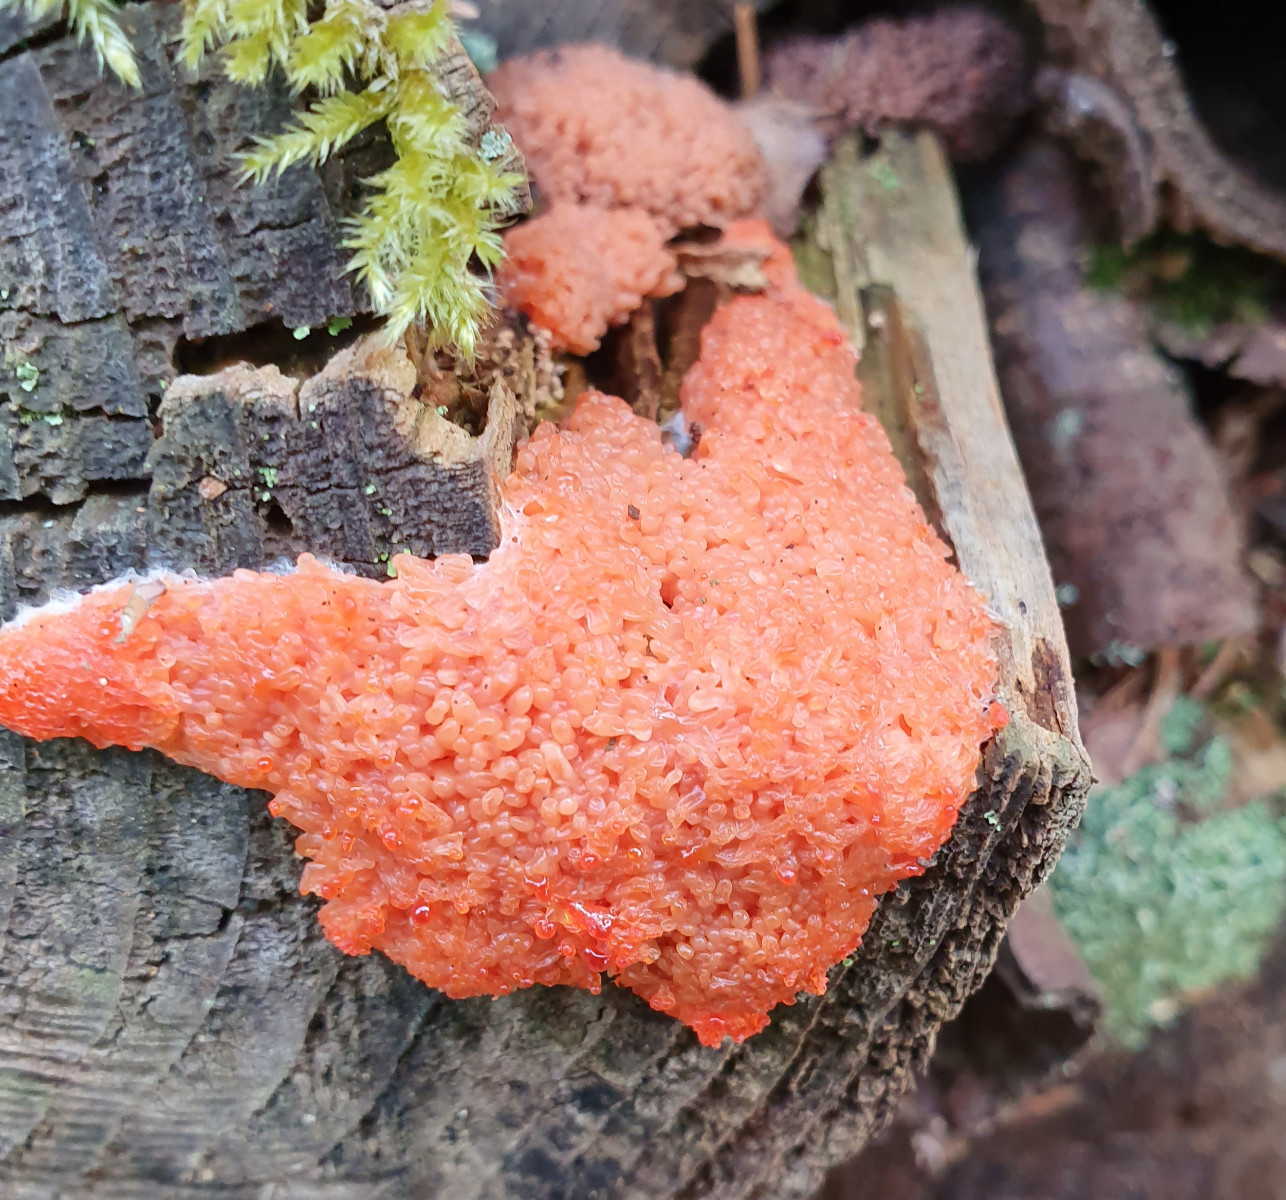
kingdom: Protozoa
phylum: Mycetozoa
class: Myxomycetes
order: Cribrariales
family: Tubiferaceae
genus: Tubifera
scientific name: Tubifera ferruginosa
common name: kanel-støvrør
